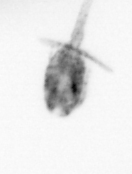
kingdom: Animalia
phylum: Arthropoda
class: Copepoda
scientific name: Copepoda
